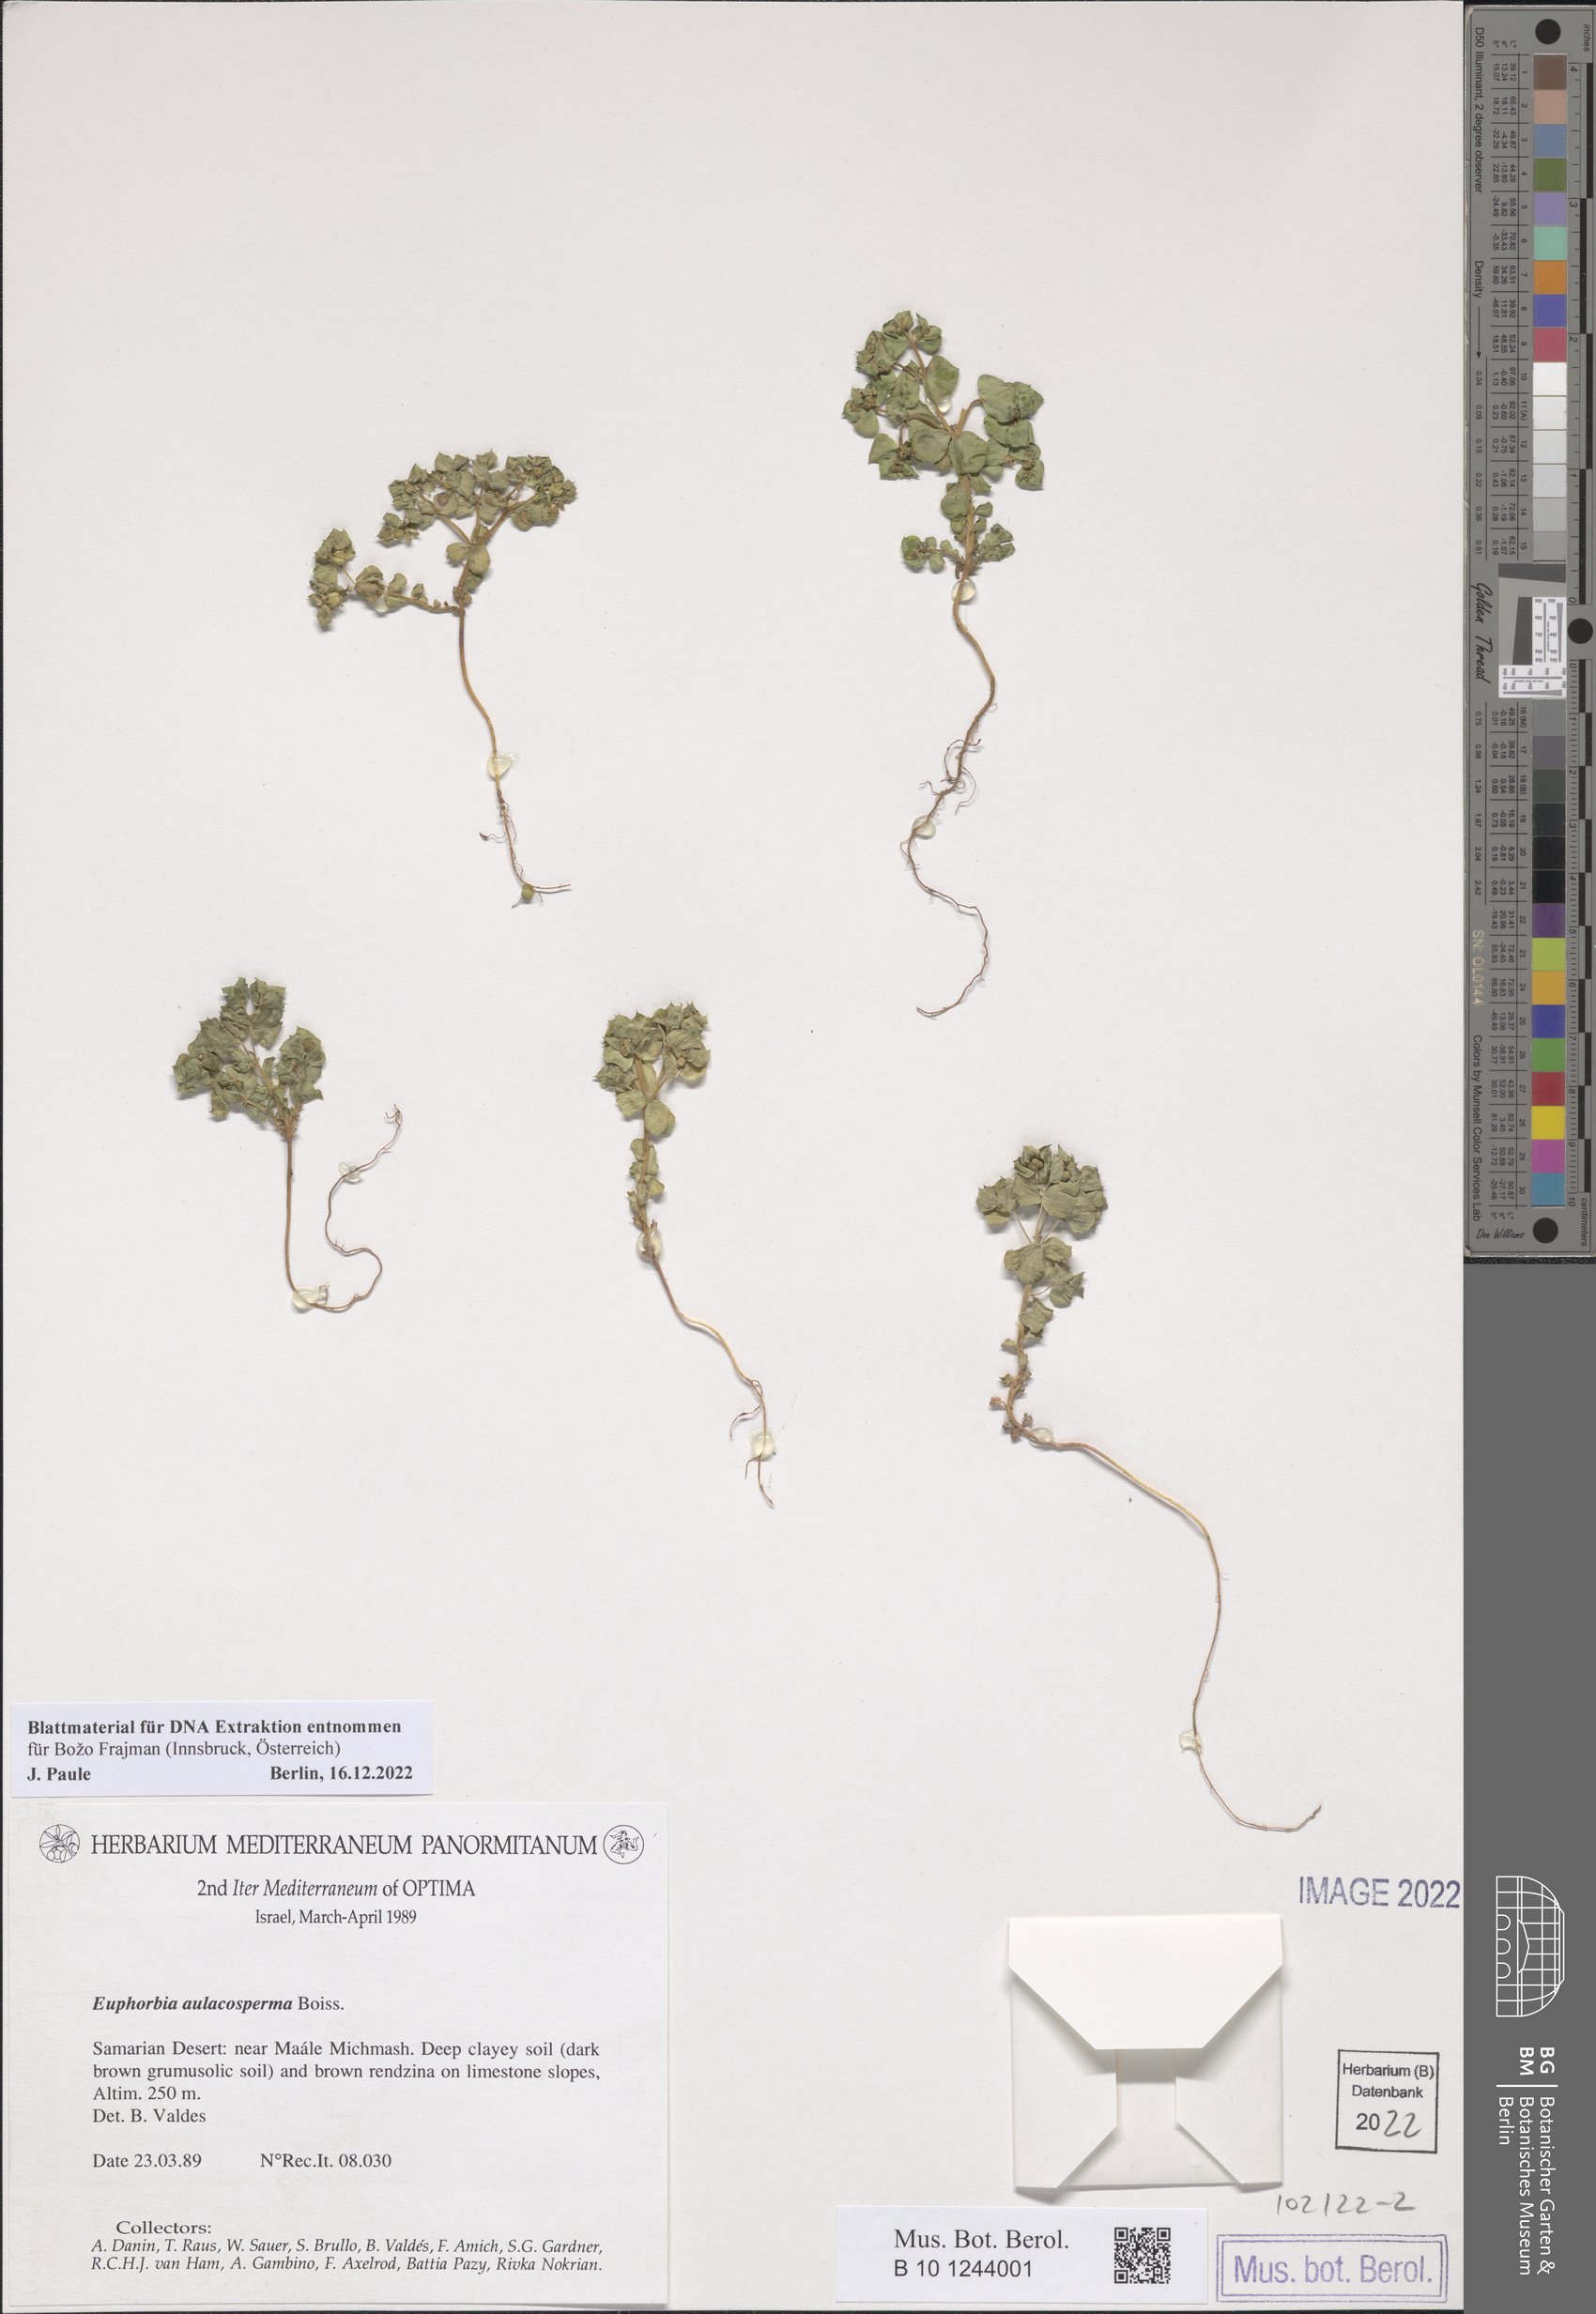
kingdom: Plantae
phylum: Tracheophyta
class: Magnoliopsida
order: Malpighiales
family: Euphorbiaceae
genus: Euphorbia
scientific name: Euphorbia aulacosperma
